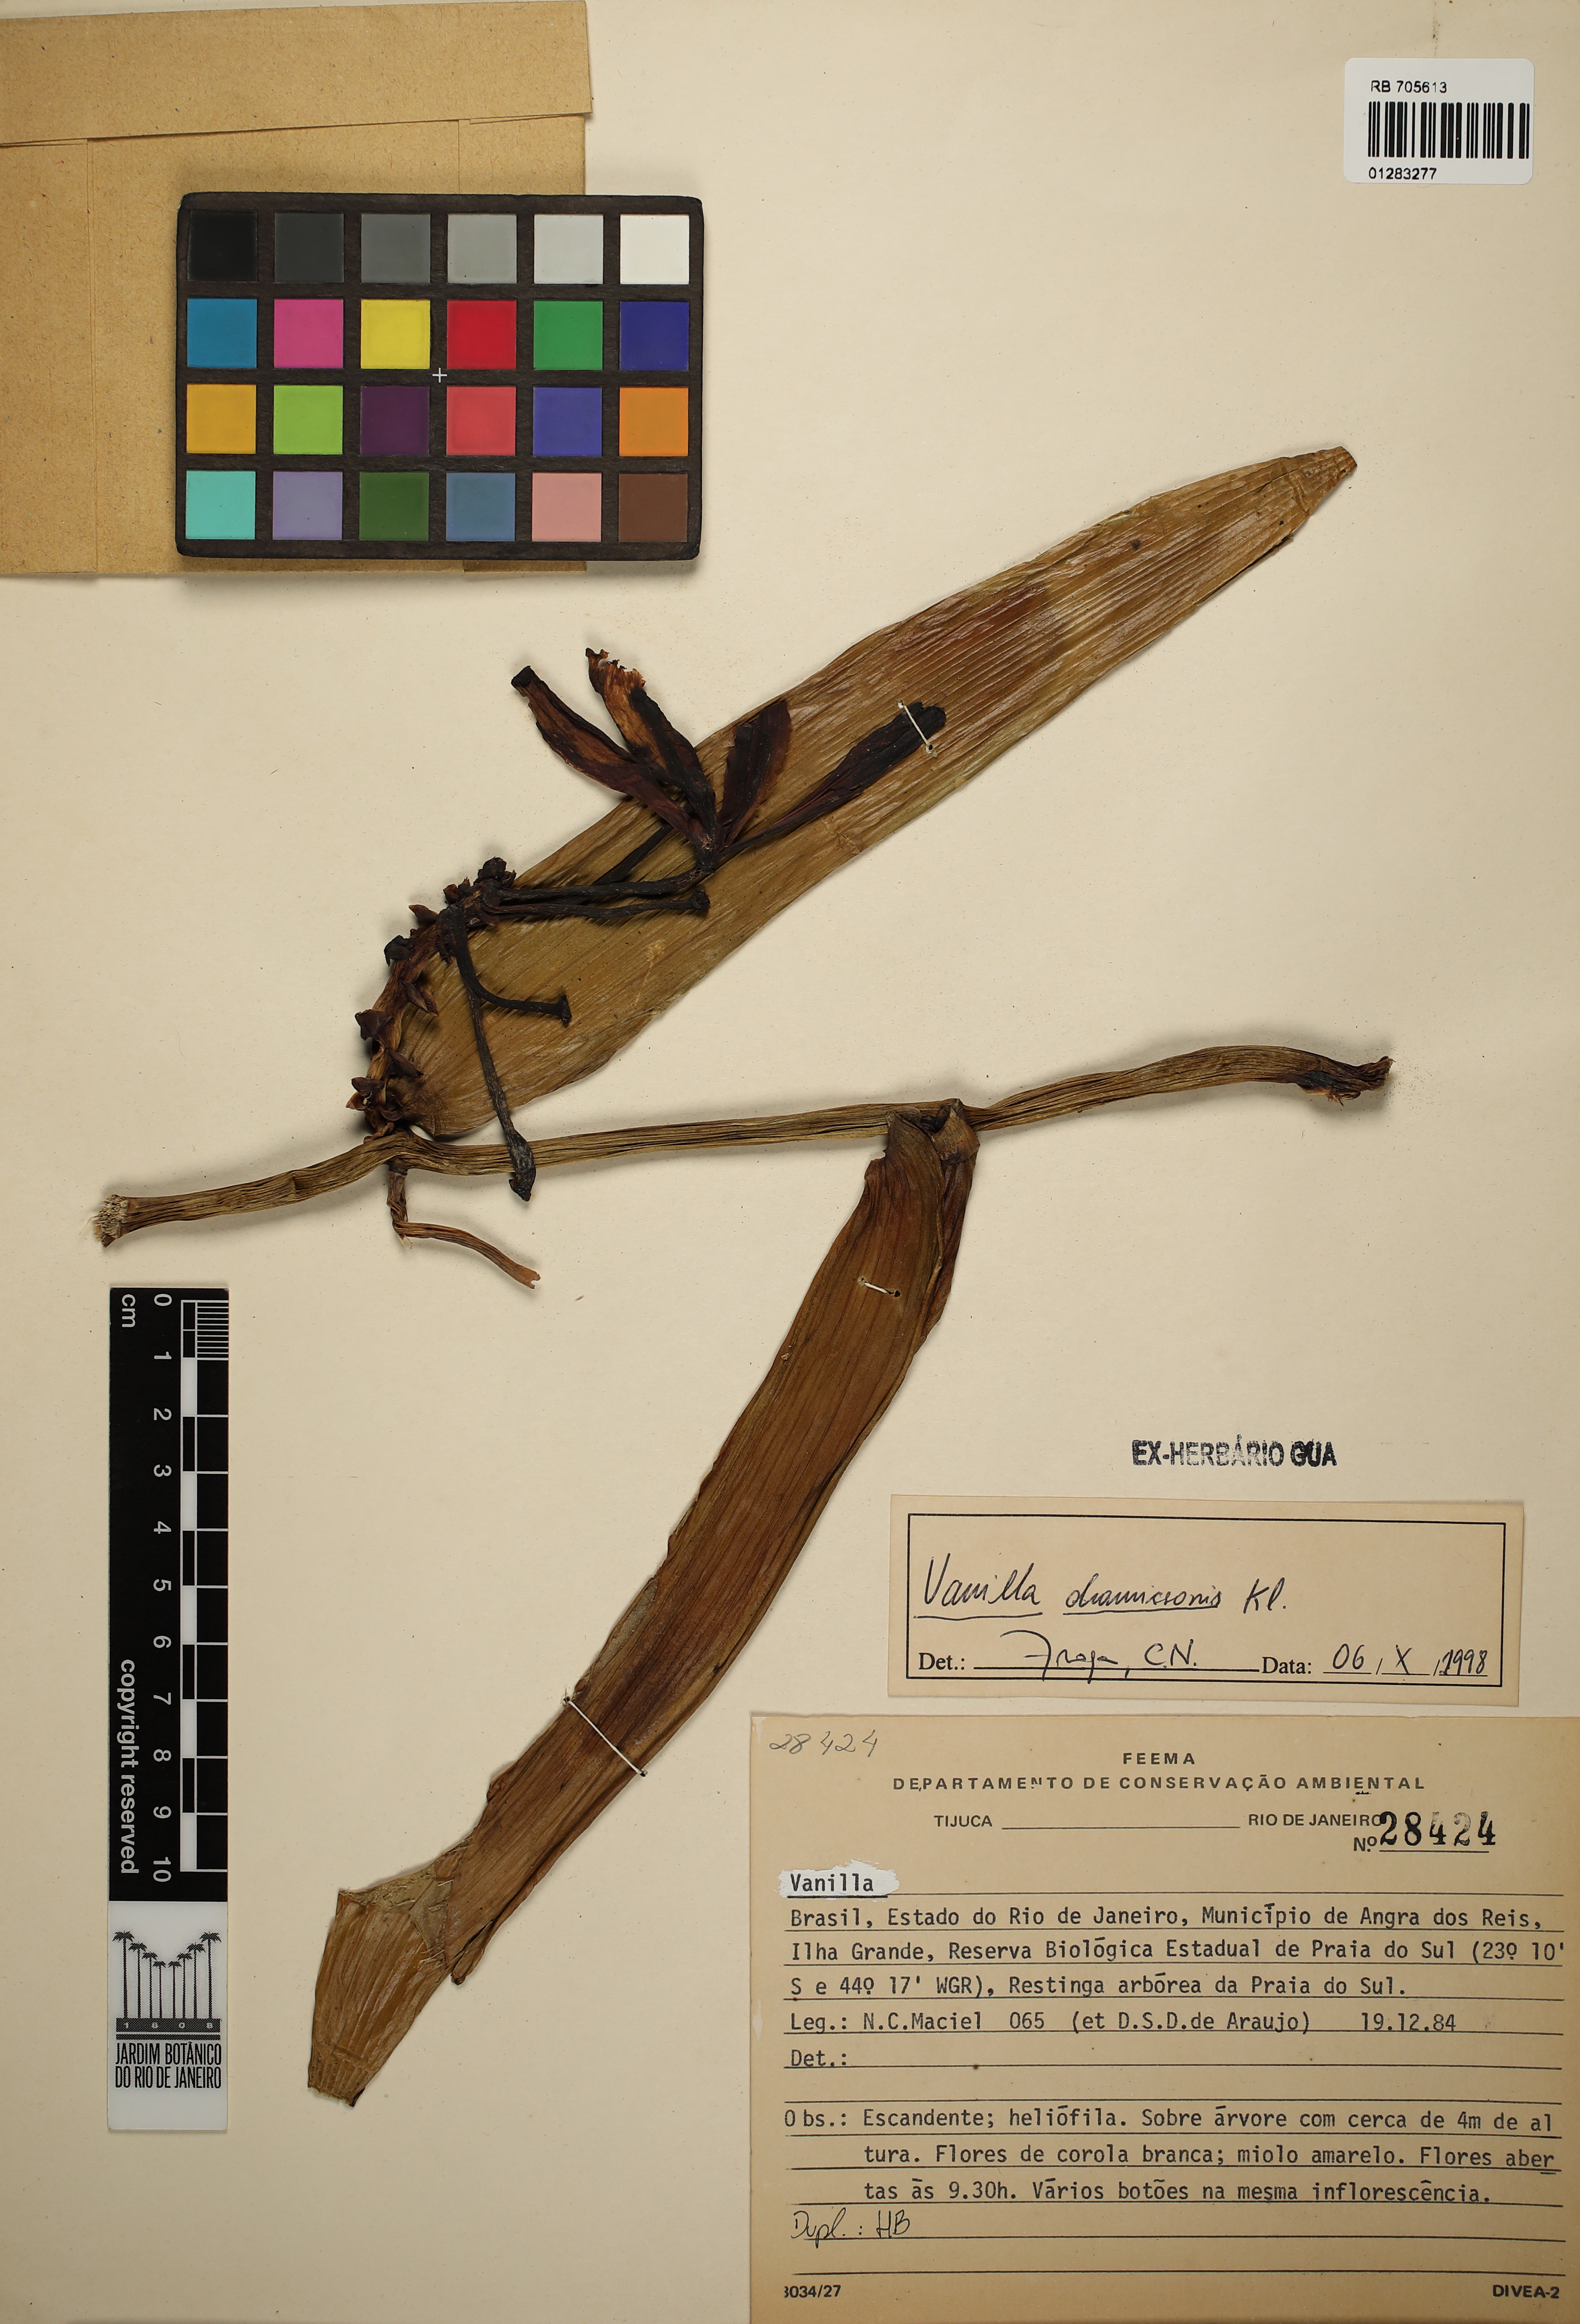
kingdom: Plantae
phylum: Tracheophyta
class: Liliopsida
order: Asparagales
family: Orchidaceae
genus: Vanilla
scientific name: Vanilla chamissonis
